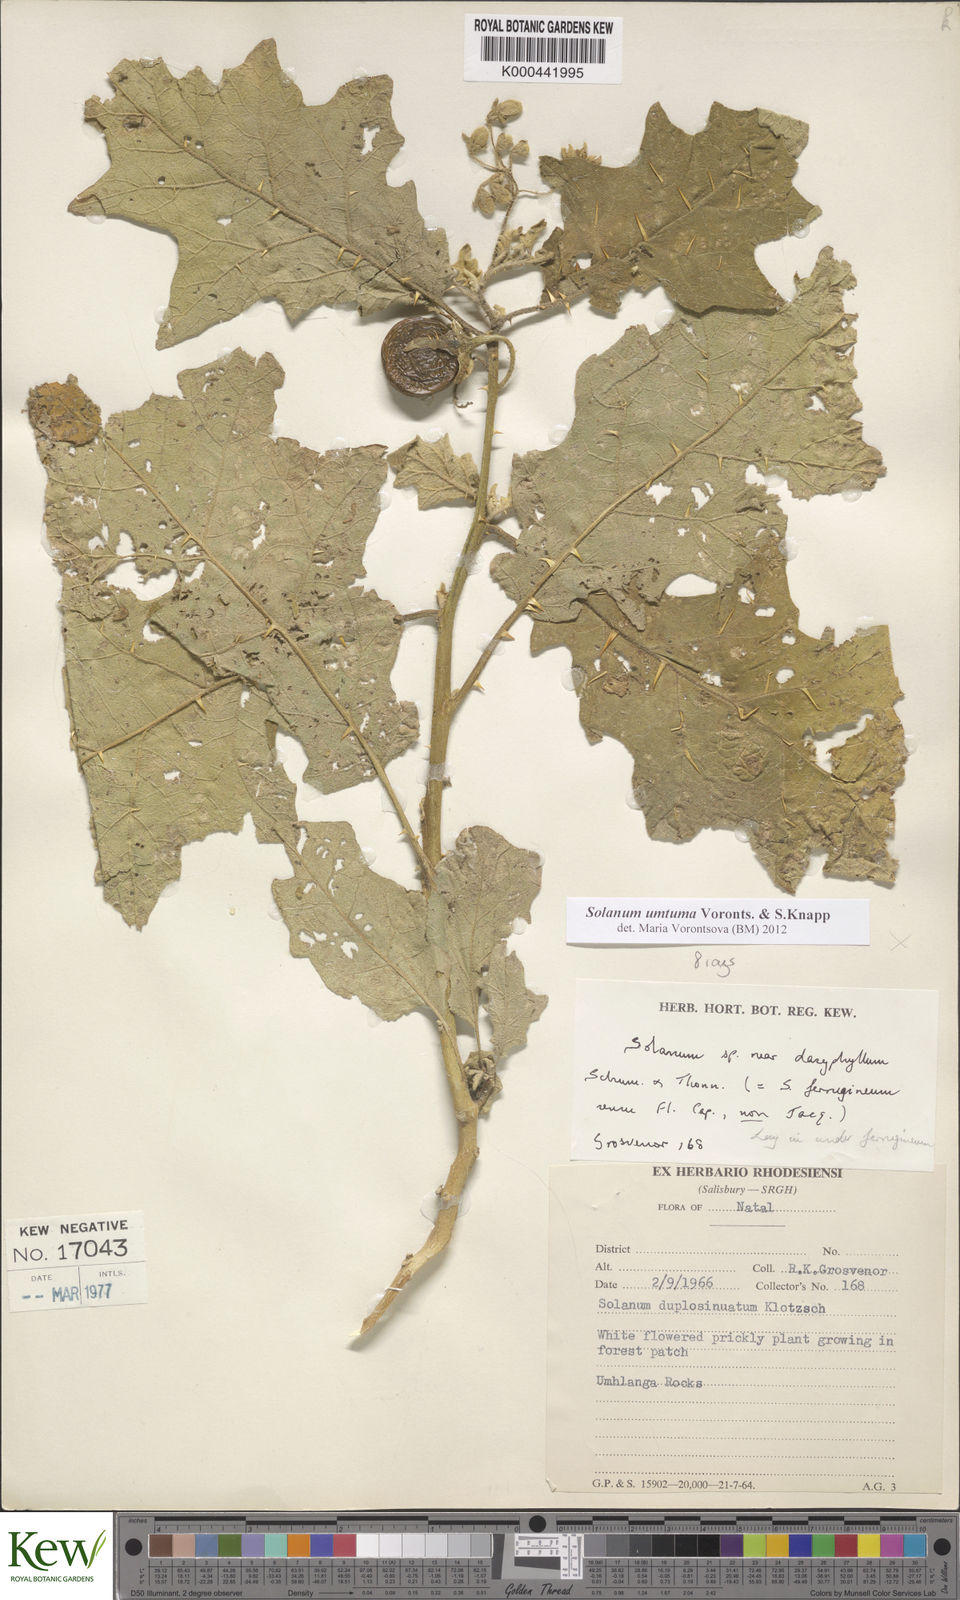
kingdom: Plantae
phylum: Tracheophyta
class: Magnoliopsida
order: Solanales
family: Solanaceae
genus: Solanum
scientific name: Solanum umtuma
